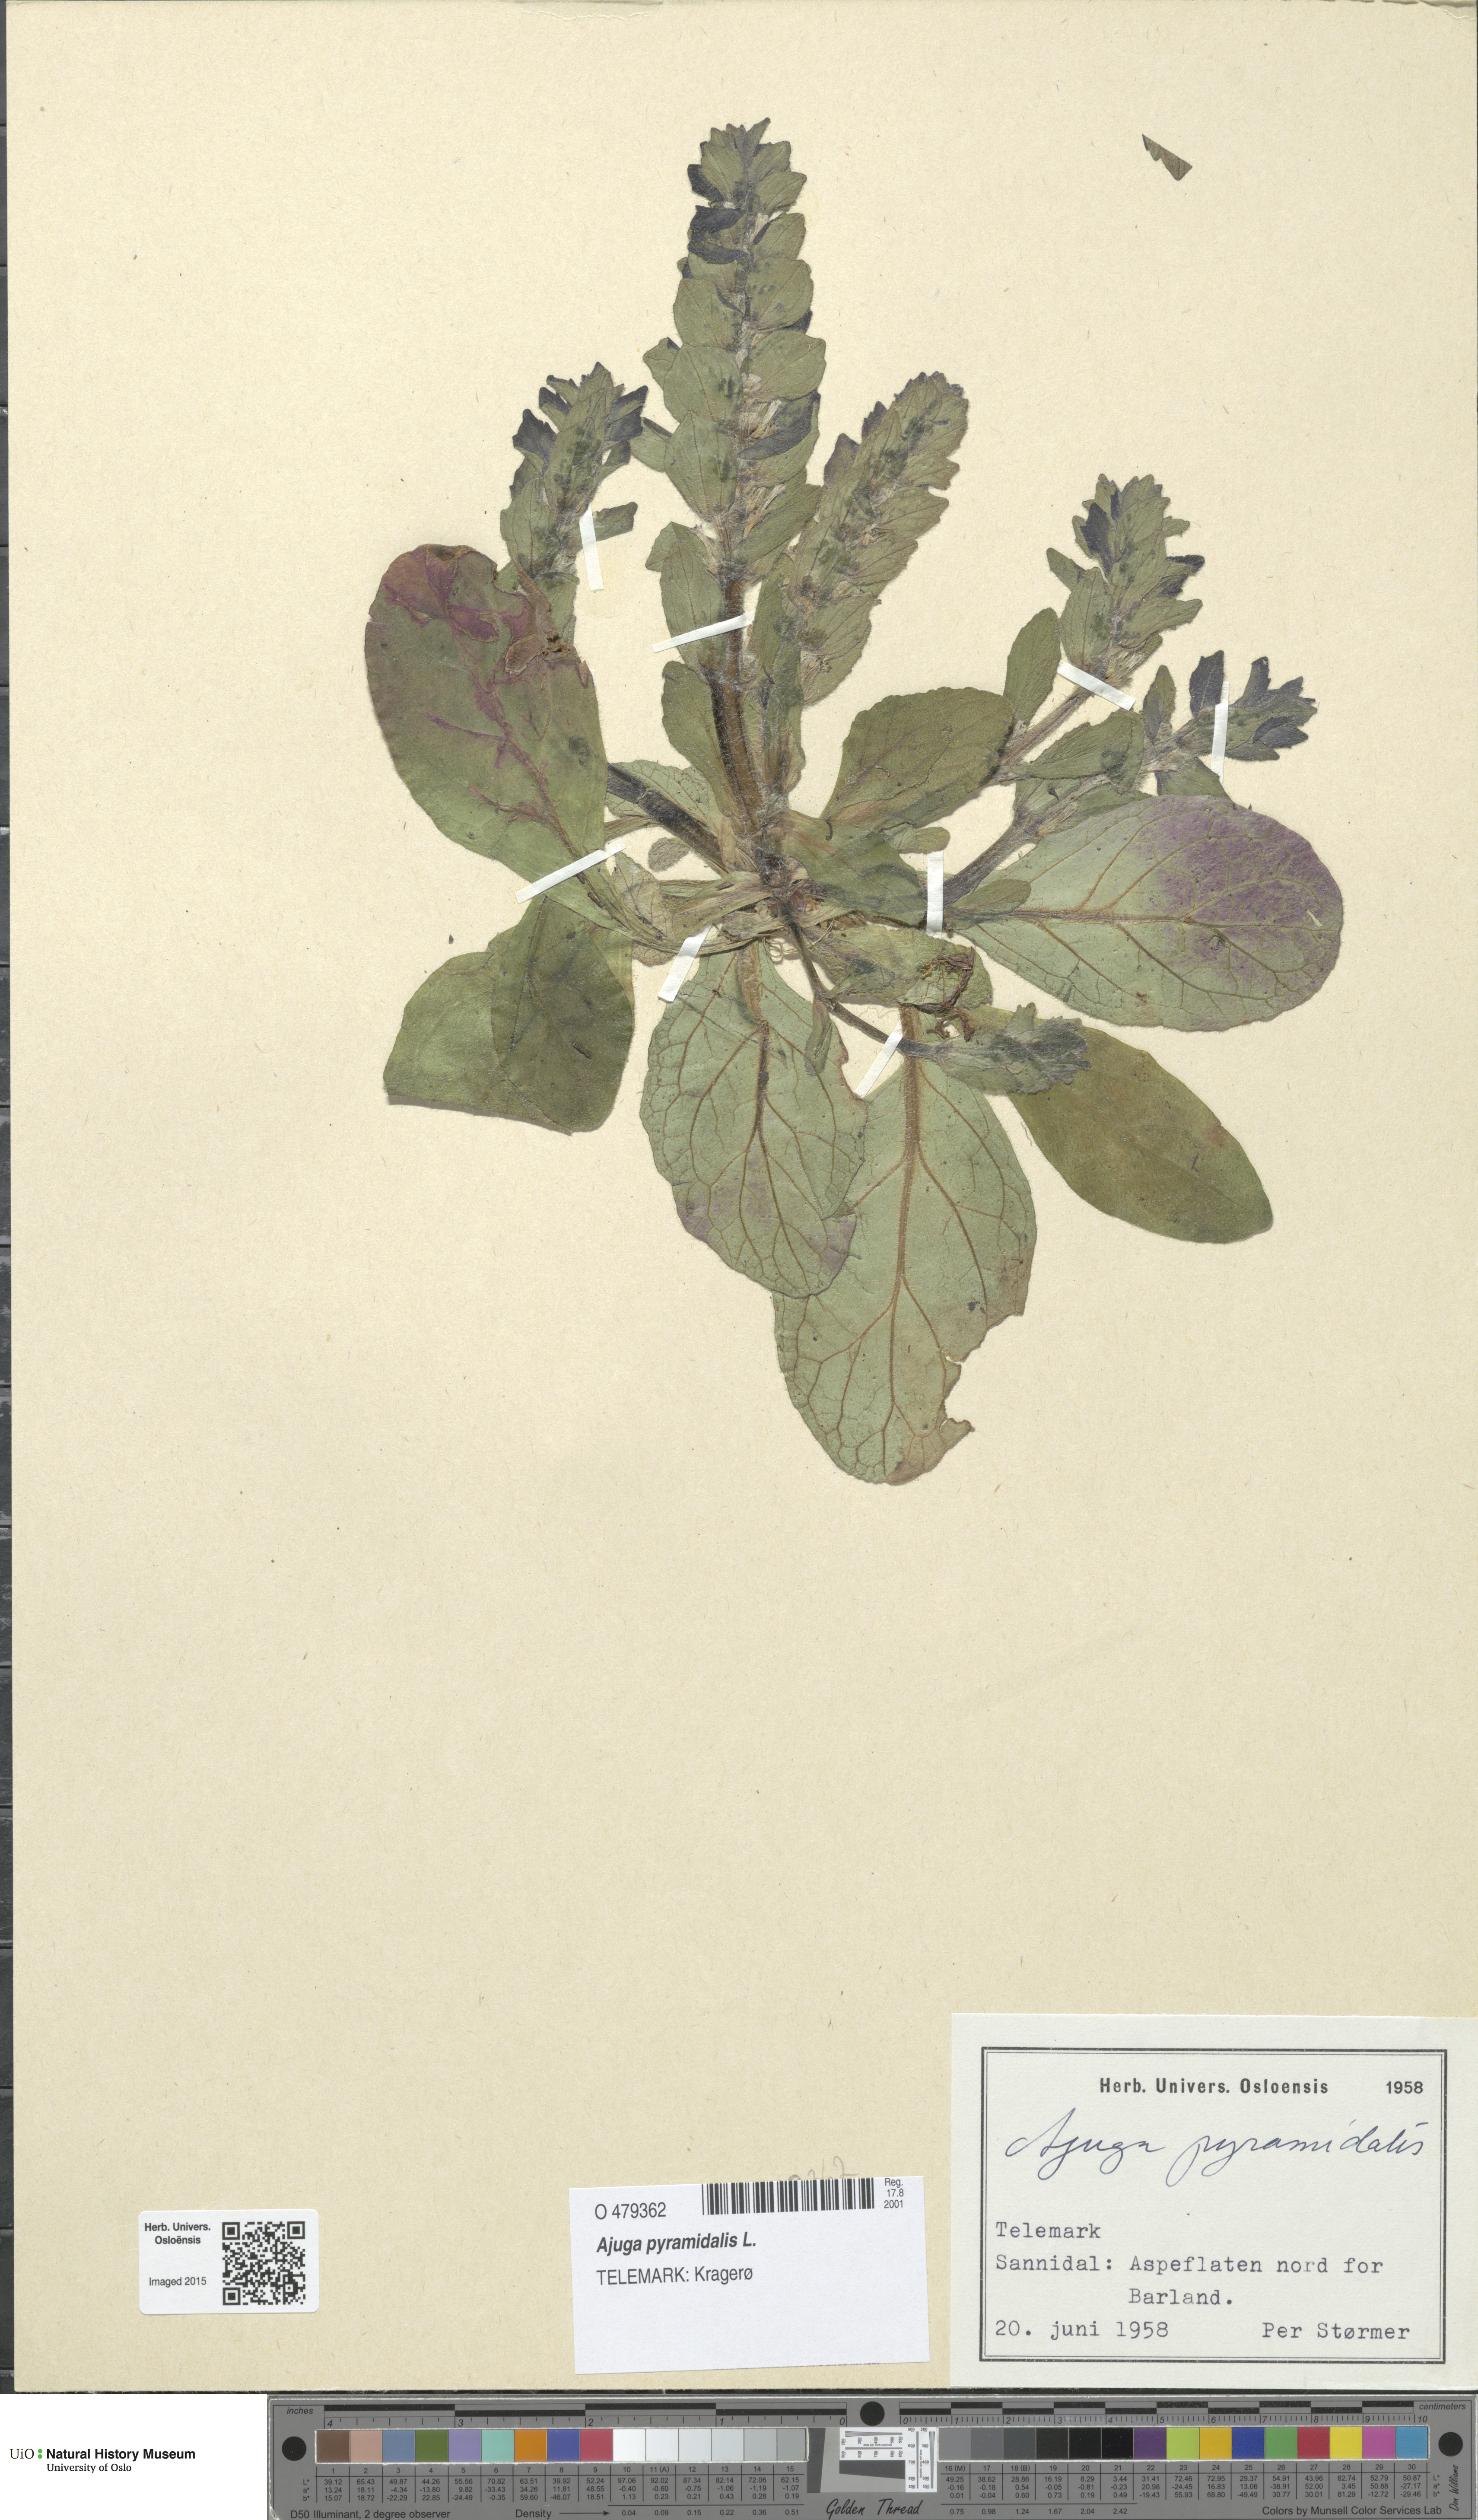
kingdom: Plantae
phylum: Tracheophyta
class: Magnoliopsida
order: Lamiales
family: Lamiaceae
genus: Ajuga
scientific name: Ajuga pyramidalis
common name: Pyramid bugle
